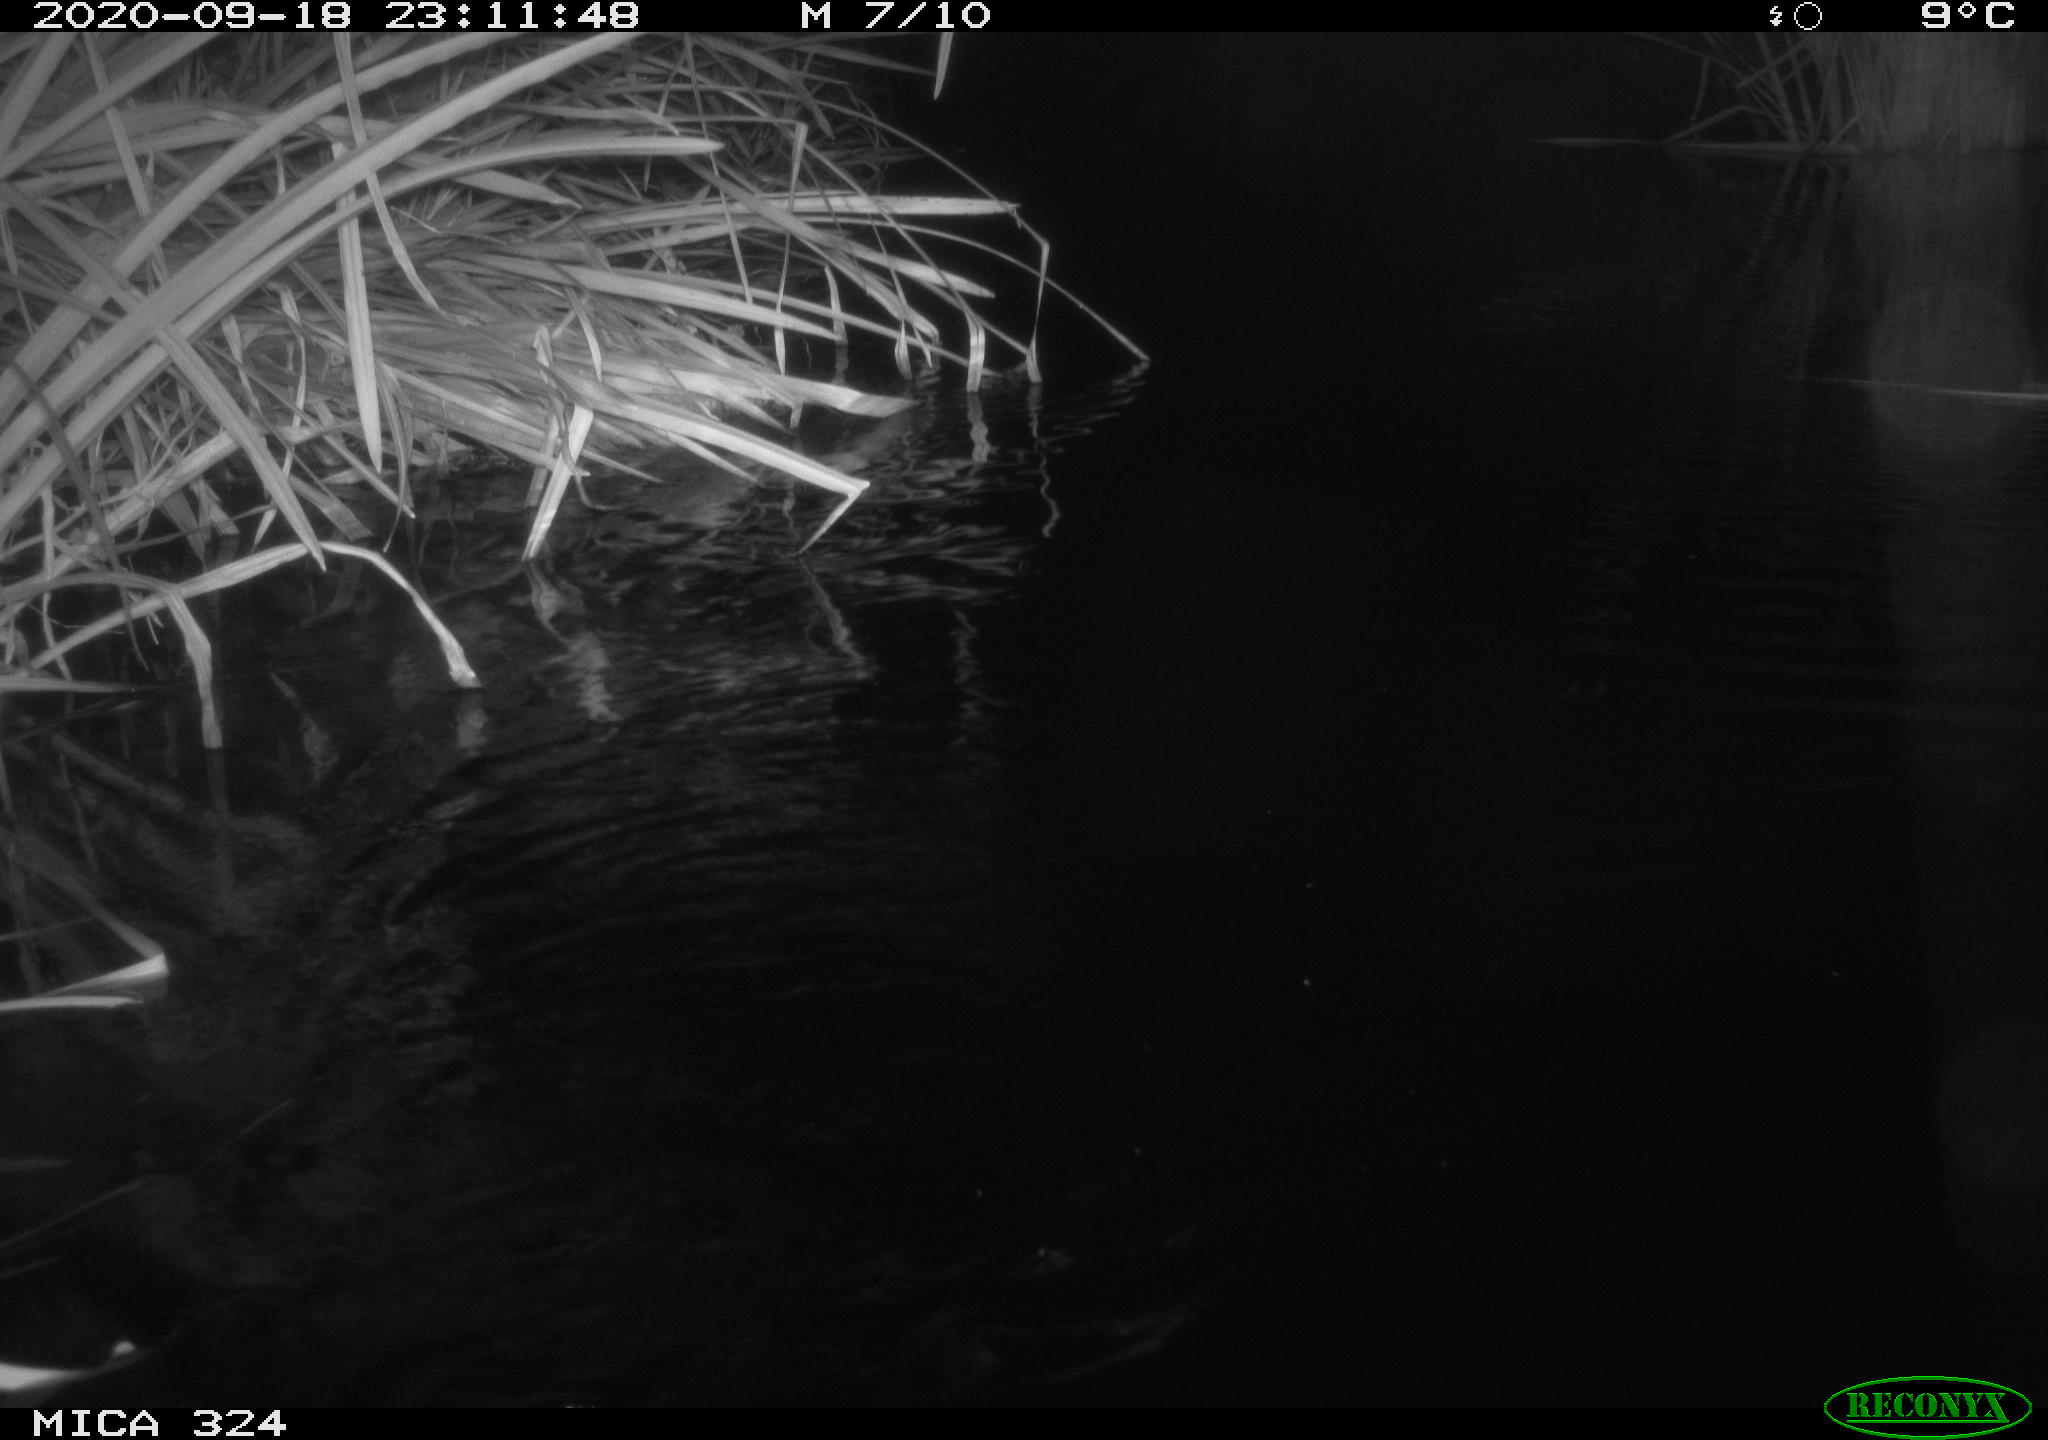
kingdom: Animalia
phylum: Chordata
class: Mammalia
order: Rodentia
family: Cricetidae
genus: Ondatra
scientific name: Ondatra zibethicus
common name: Muskrat
